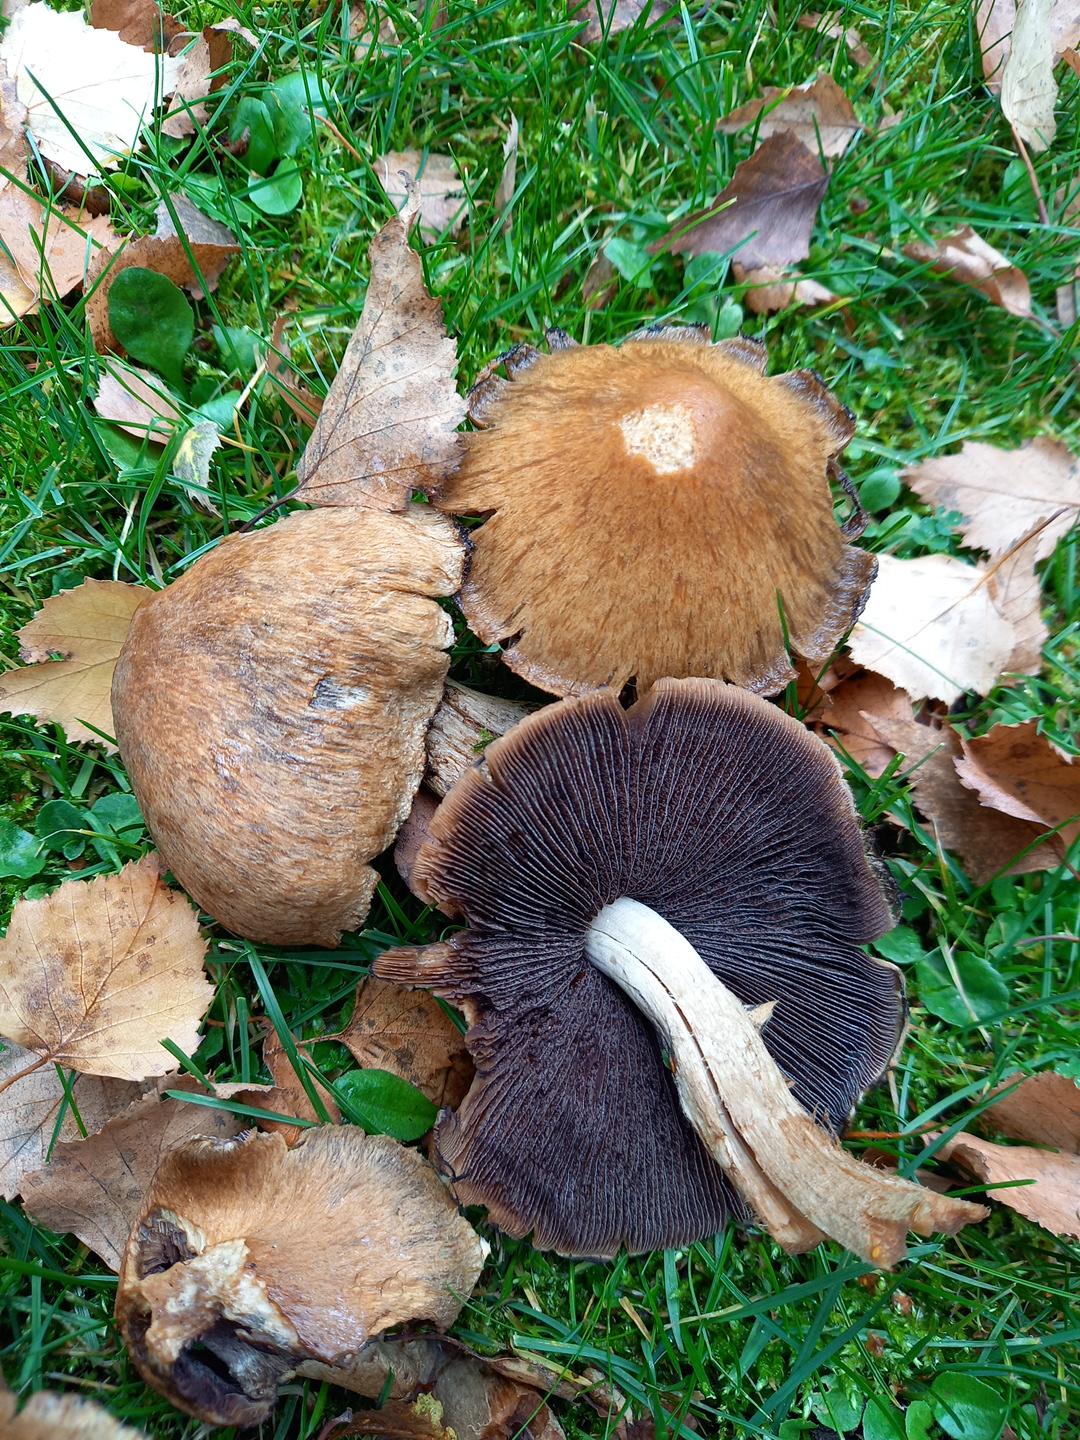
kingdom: Fungi
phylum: Basidiomycota
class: Agaricomycetes
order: Agaricales
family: Psathyrellaceae
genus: Lacrymaria
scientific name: Lacrymaria lacrymabunda
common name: grædende mørkhat
